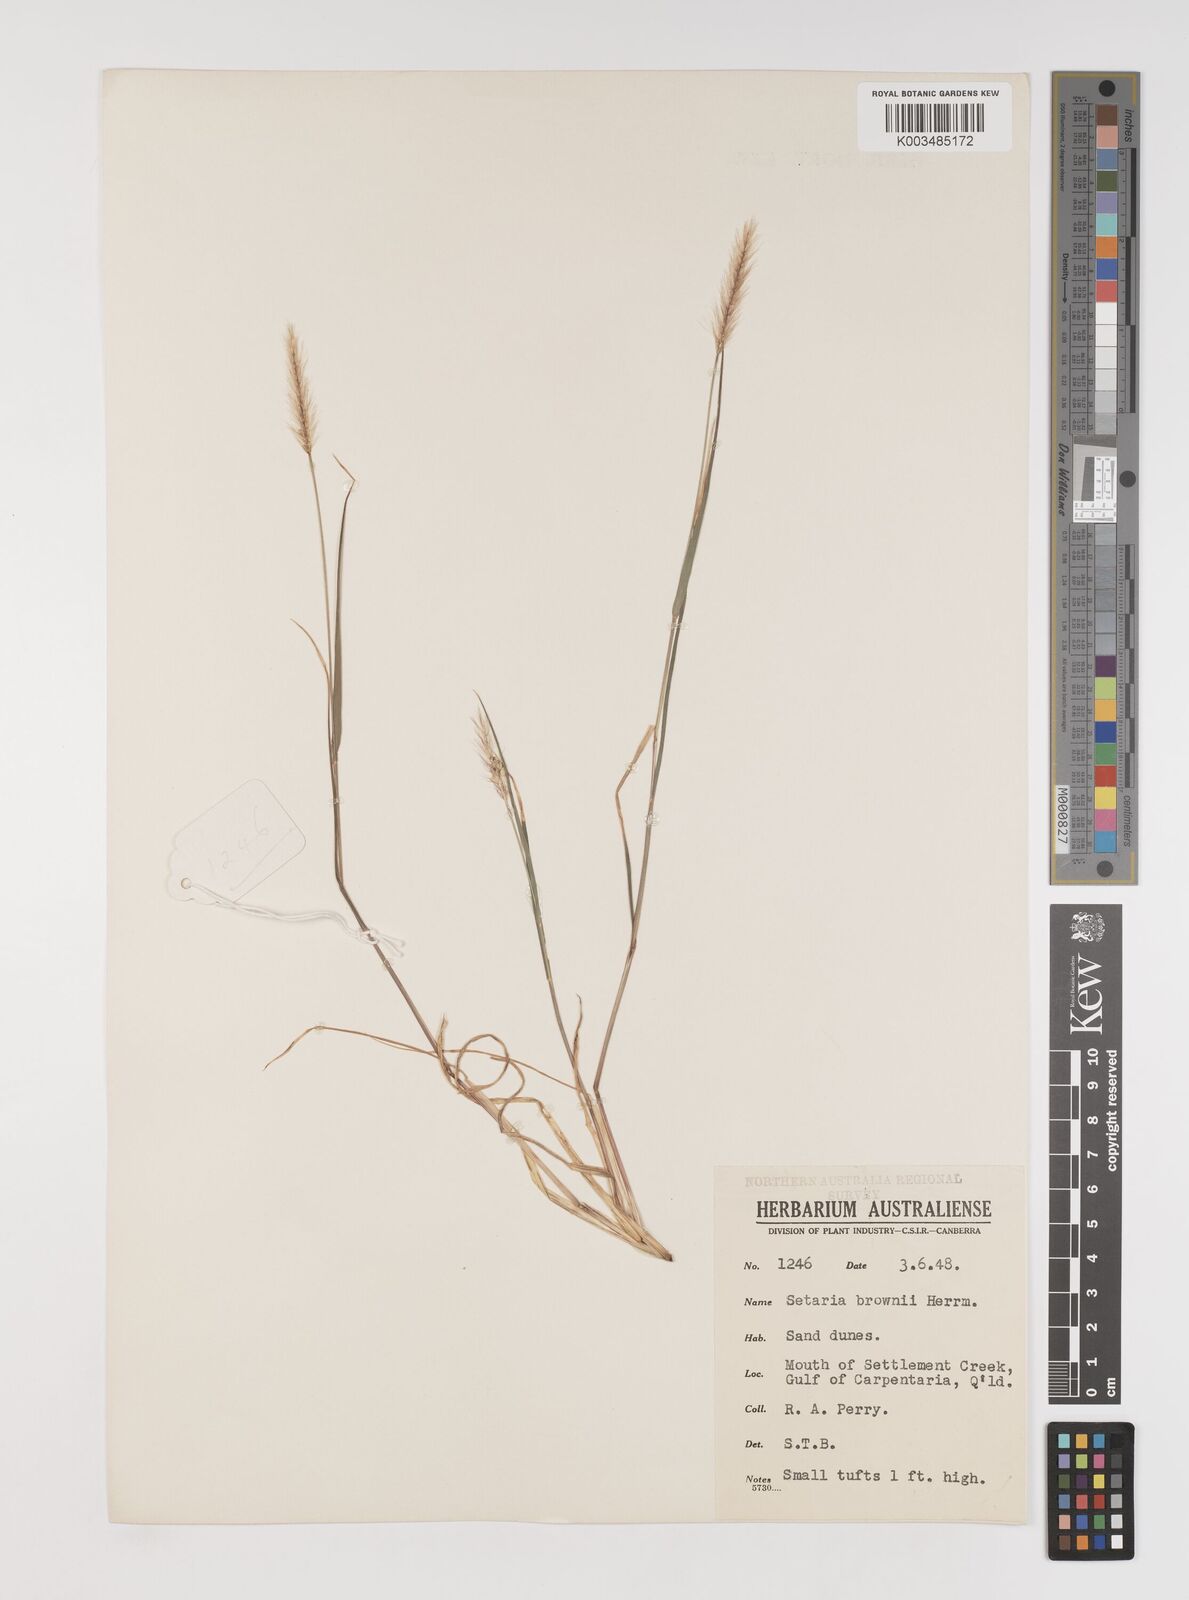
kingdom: Plantae
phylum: Tracheophyta
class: Liliopsida
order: Poales
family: Poaceae
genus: Setaria
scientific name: Setaria apiculata
